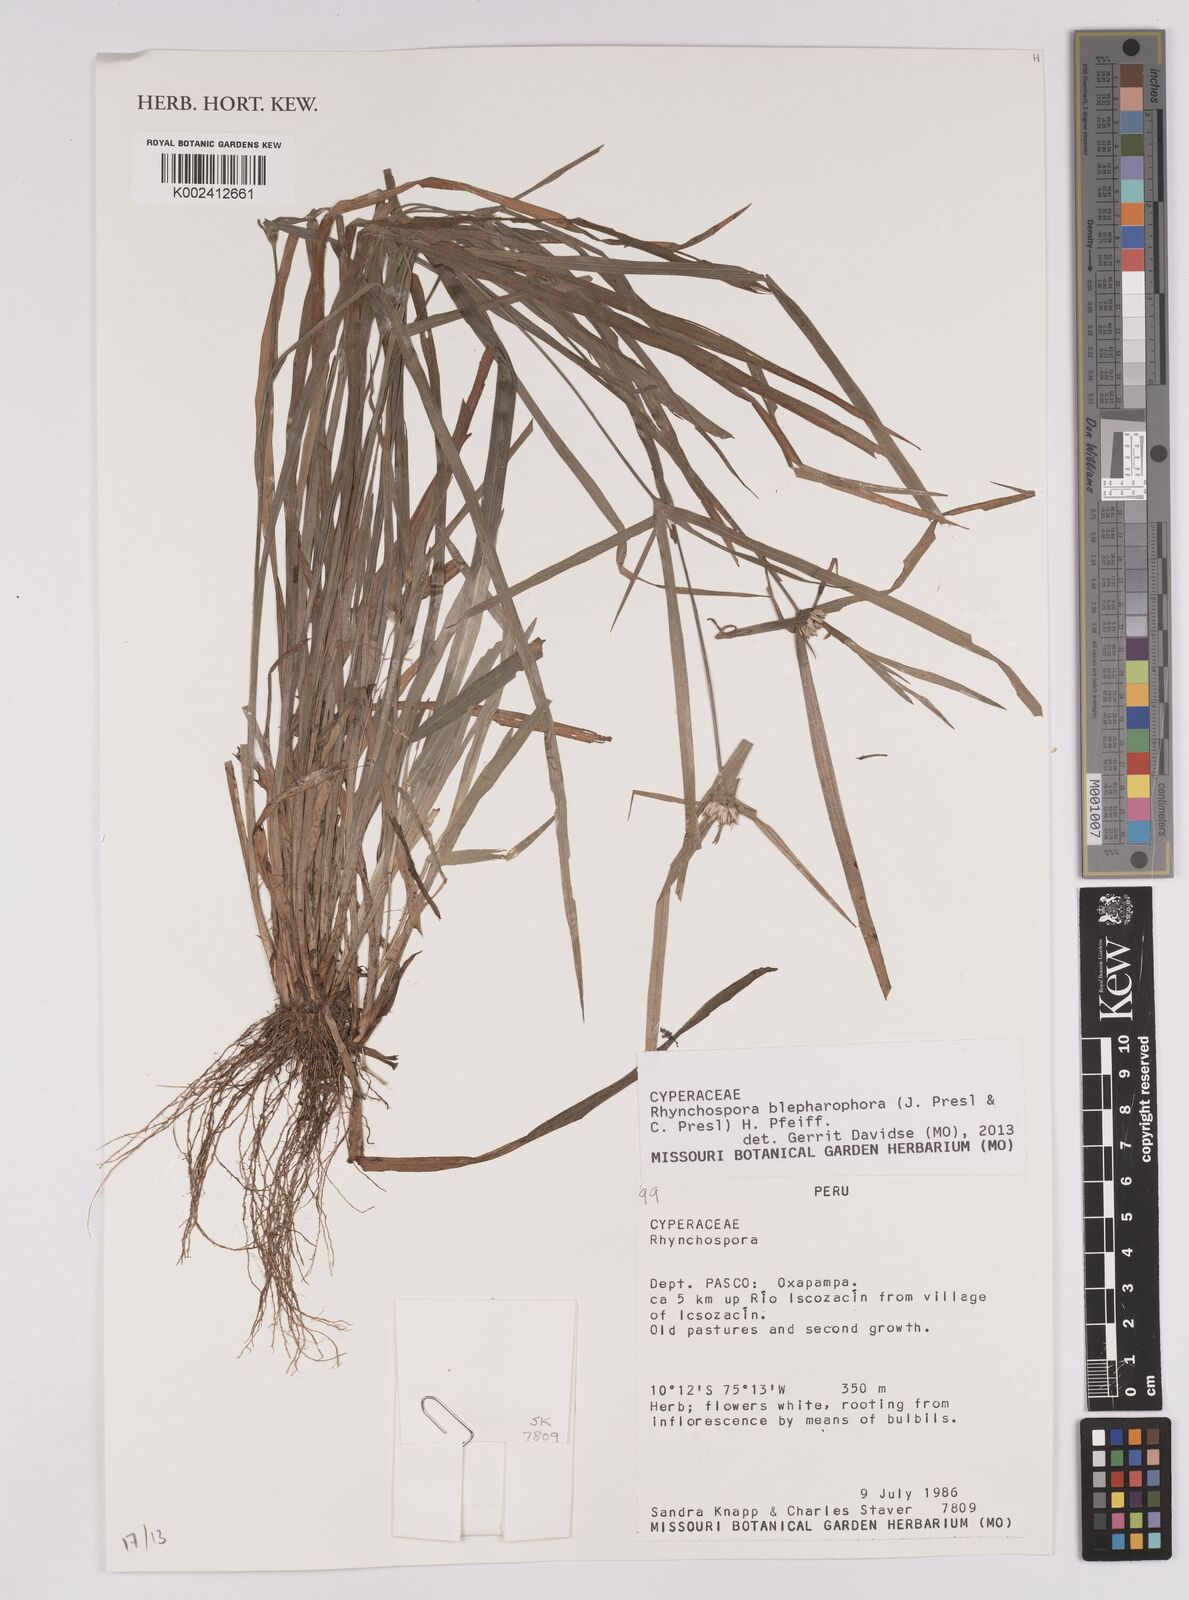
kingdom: Plantae
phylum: Tracheophyta
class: Liliopsida
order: Poales
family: Cyperaceae
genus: Rhynchospora
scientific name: Rhynchospora blepharophora
